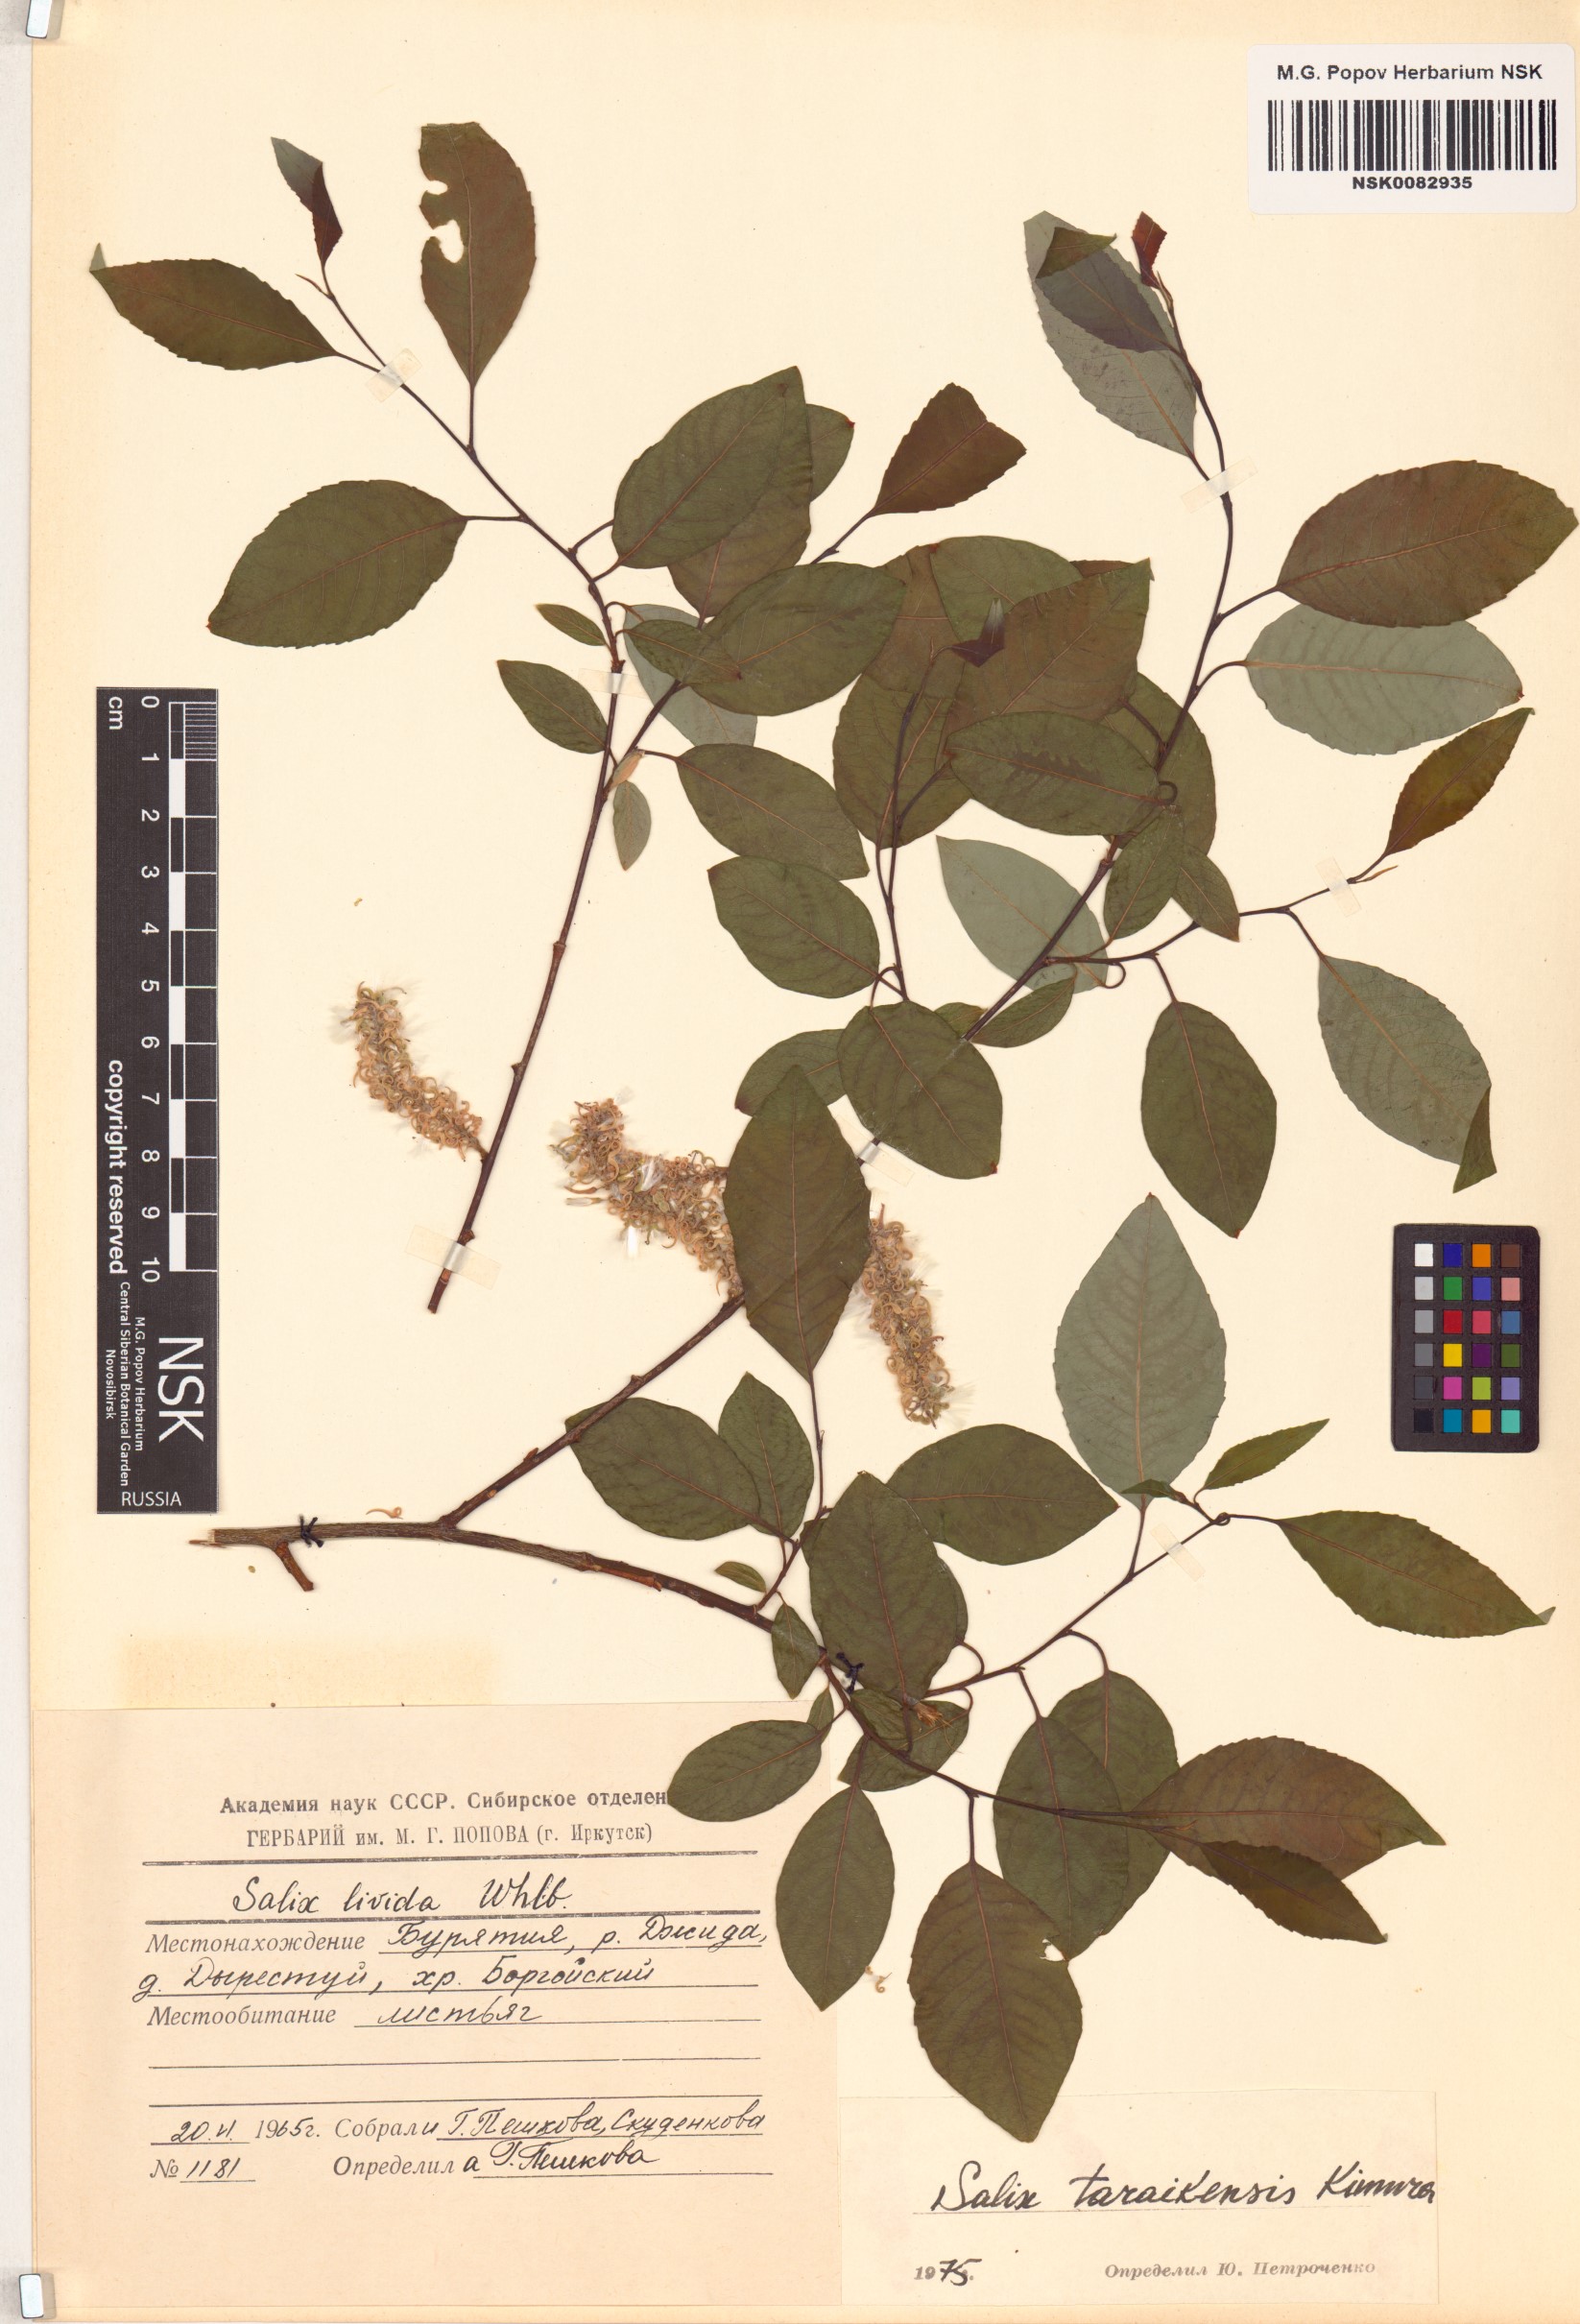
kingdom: Plantae
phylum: Tracheophyta
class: Magnoliopsida
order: Malpighiales
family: Salicaceae
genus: Salix
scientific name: Salix taraikensis
